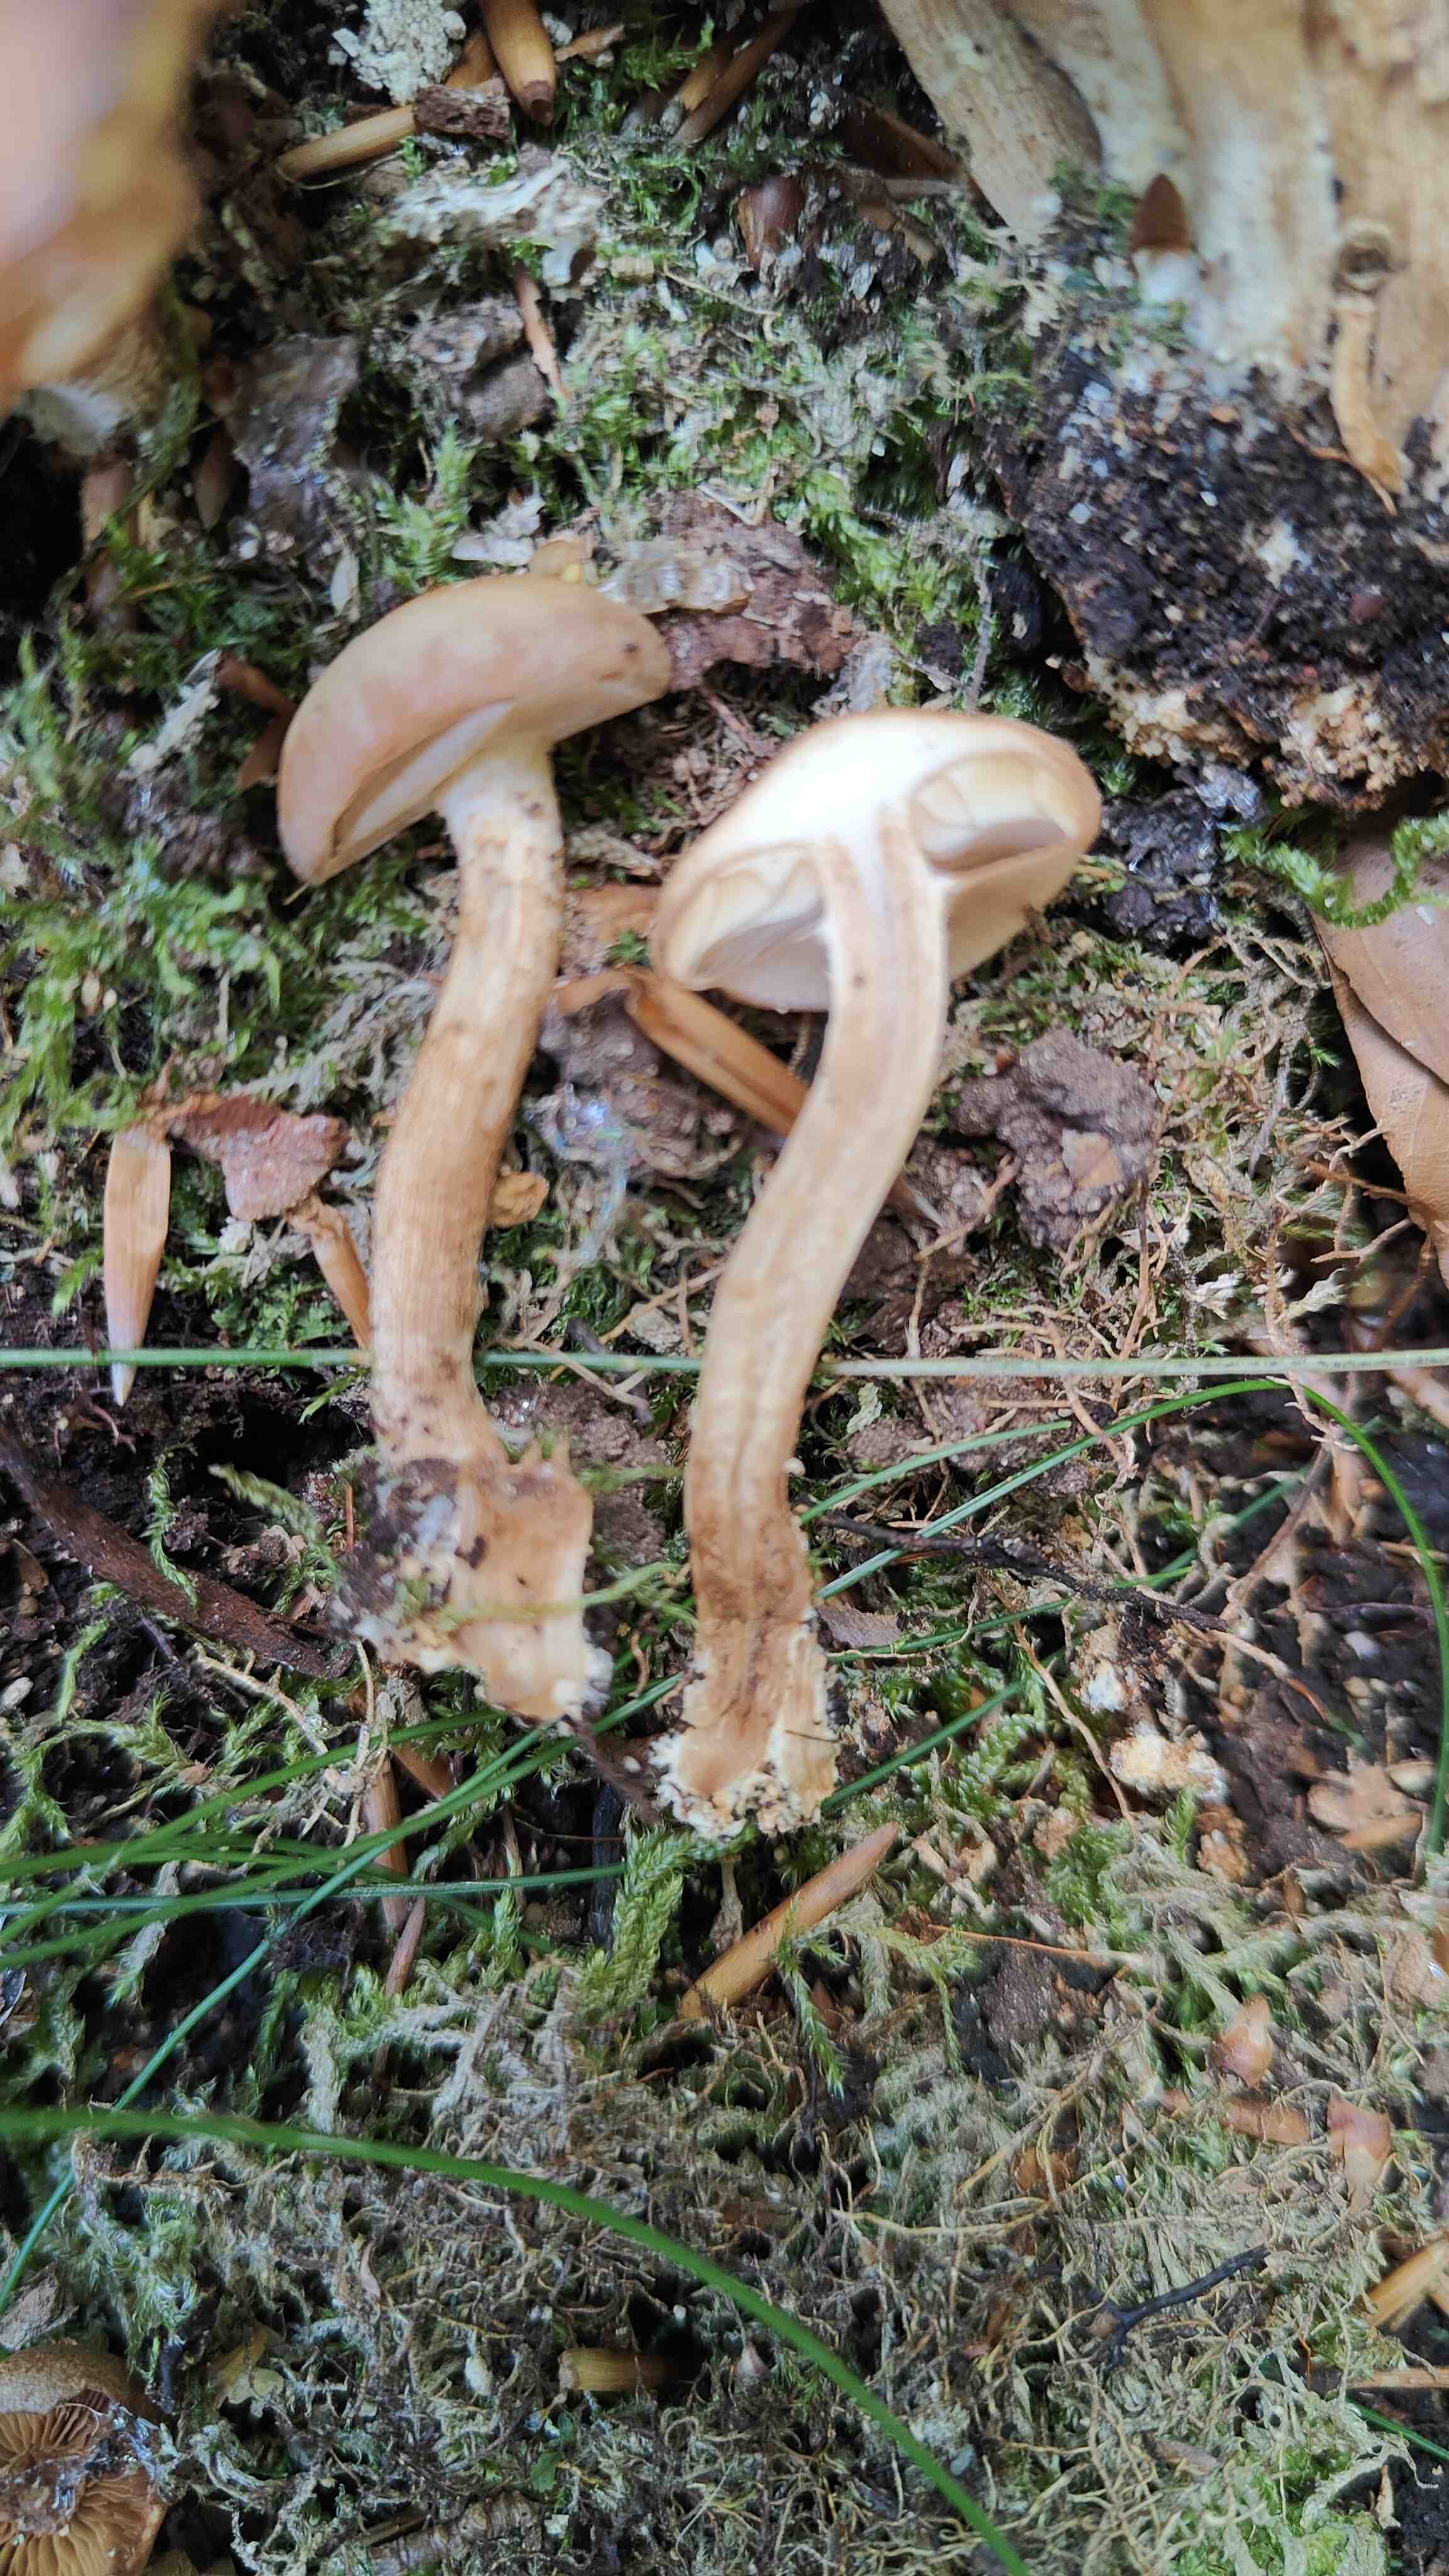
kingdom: Fungi
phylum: Basidiomycota
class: Agaricomycetes
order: Agaricales
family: Strophariaceae
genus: Kuehneromyces
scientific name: Kuehneromyces mutabilis
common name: foranderlig skælhat
